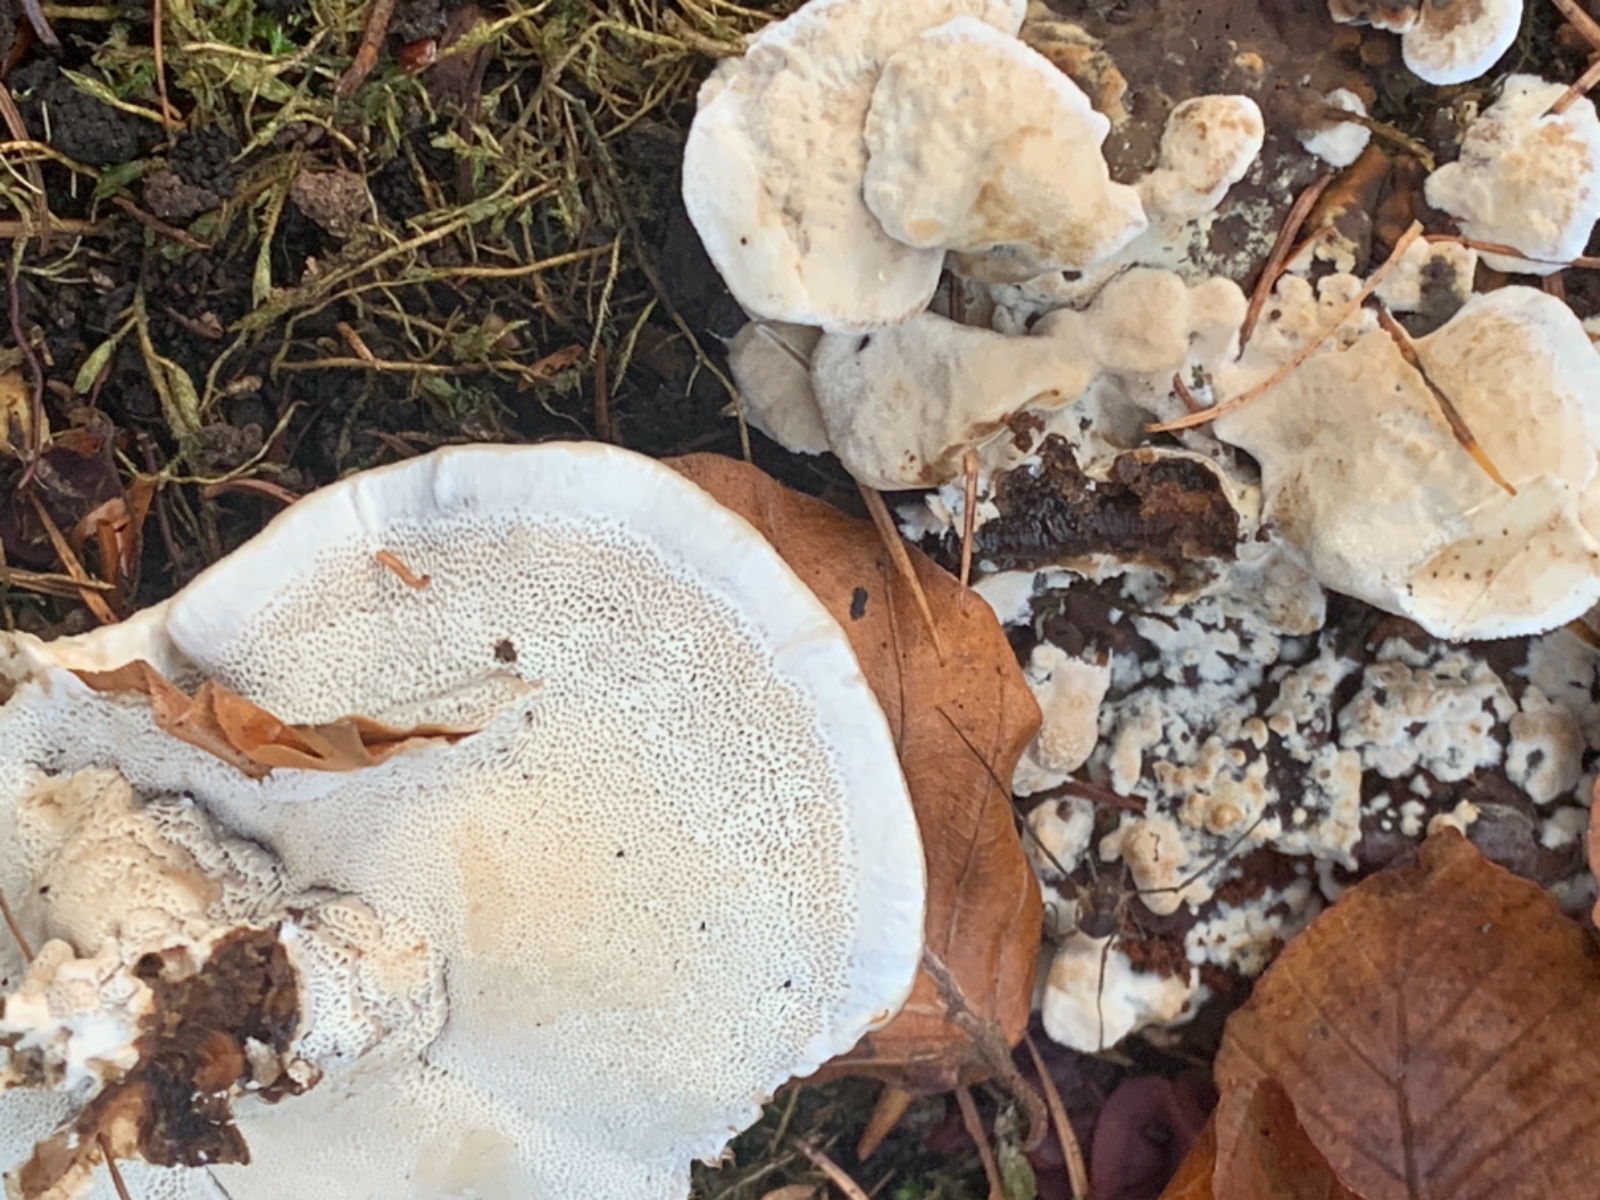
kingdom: Fungi
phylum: Basidiomycota
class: Agaricomycetes
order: Polyporales
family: Polyporaceae
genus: Trametes
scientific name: Trametes gibbosa
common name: puklet læderporesvamp
